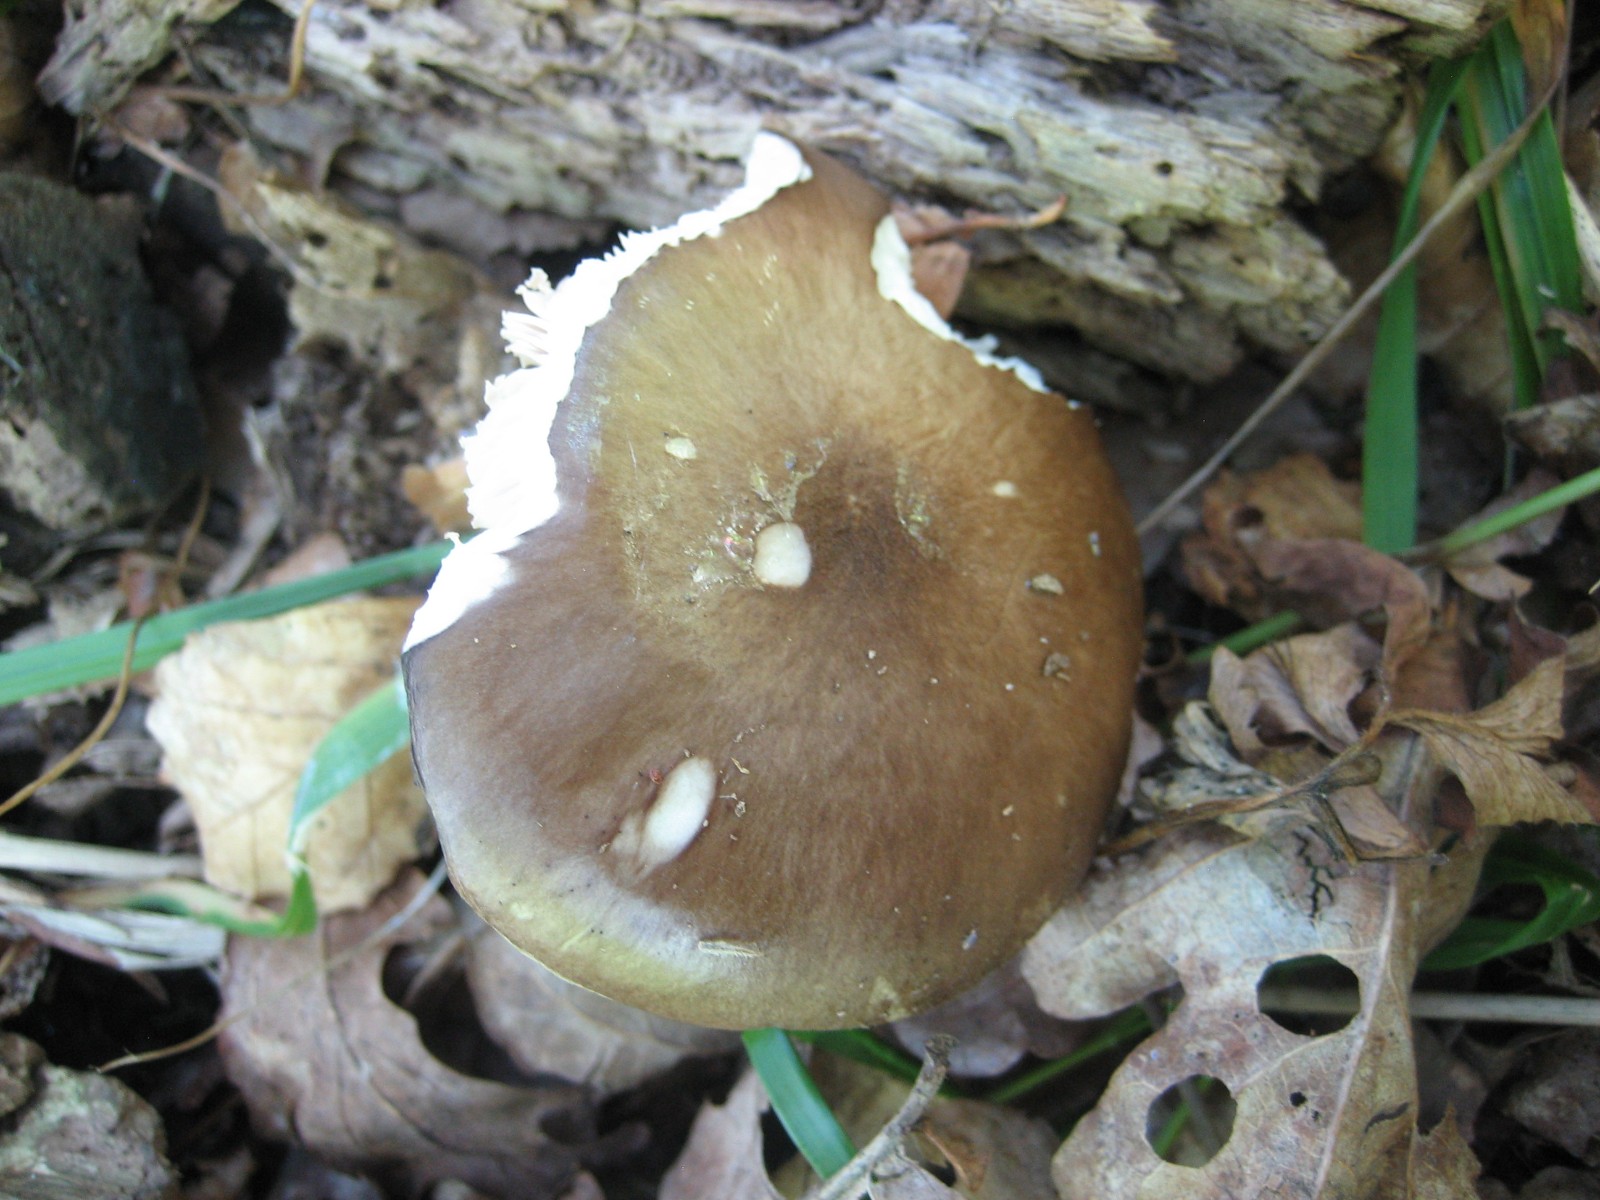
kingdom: Fungi
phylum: Basidiomycota
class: Agaricomycetes
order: Agaricales
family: Pluteaceae
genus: Pluteus
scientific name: Pluteus cervinus
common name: sodfarvet skærmhat
